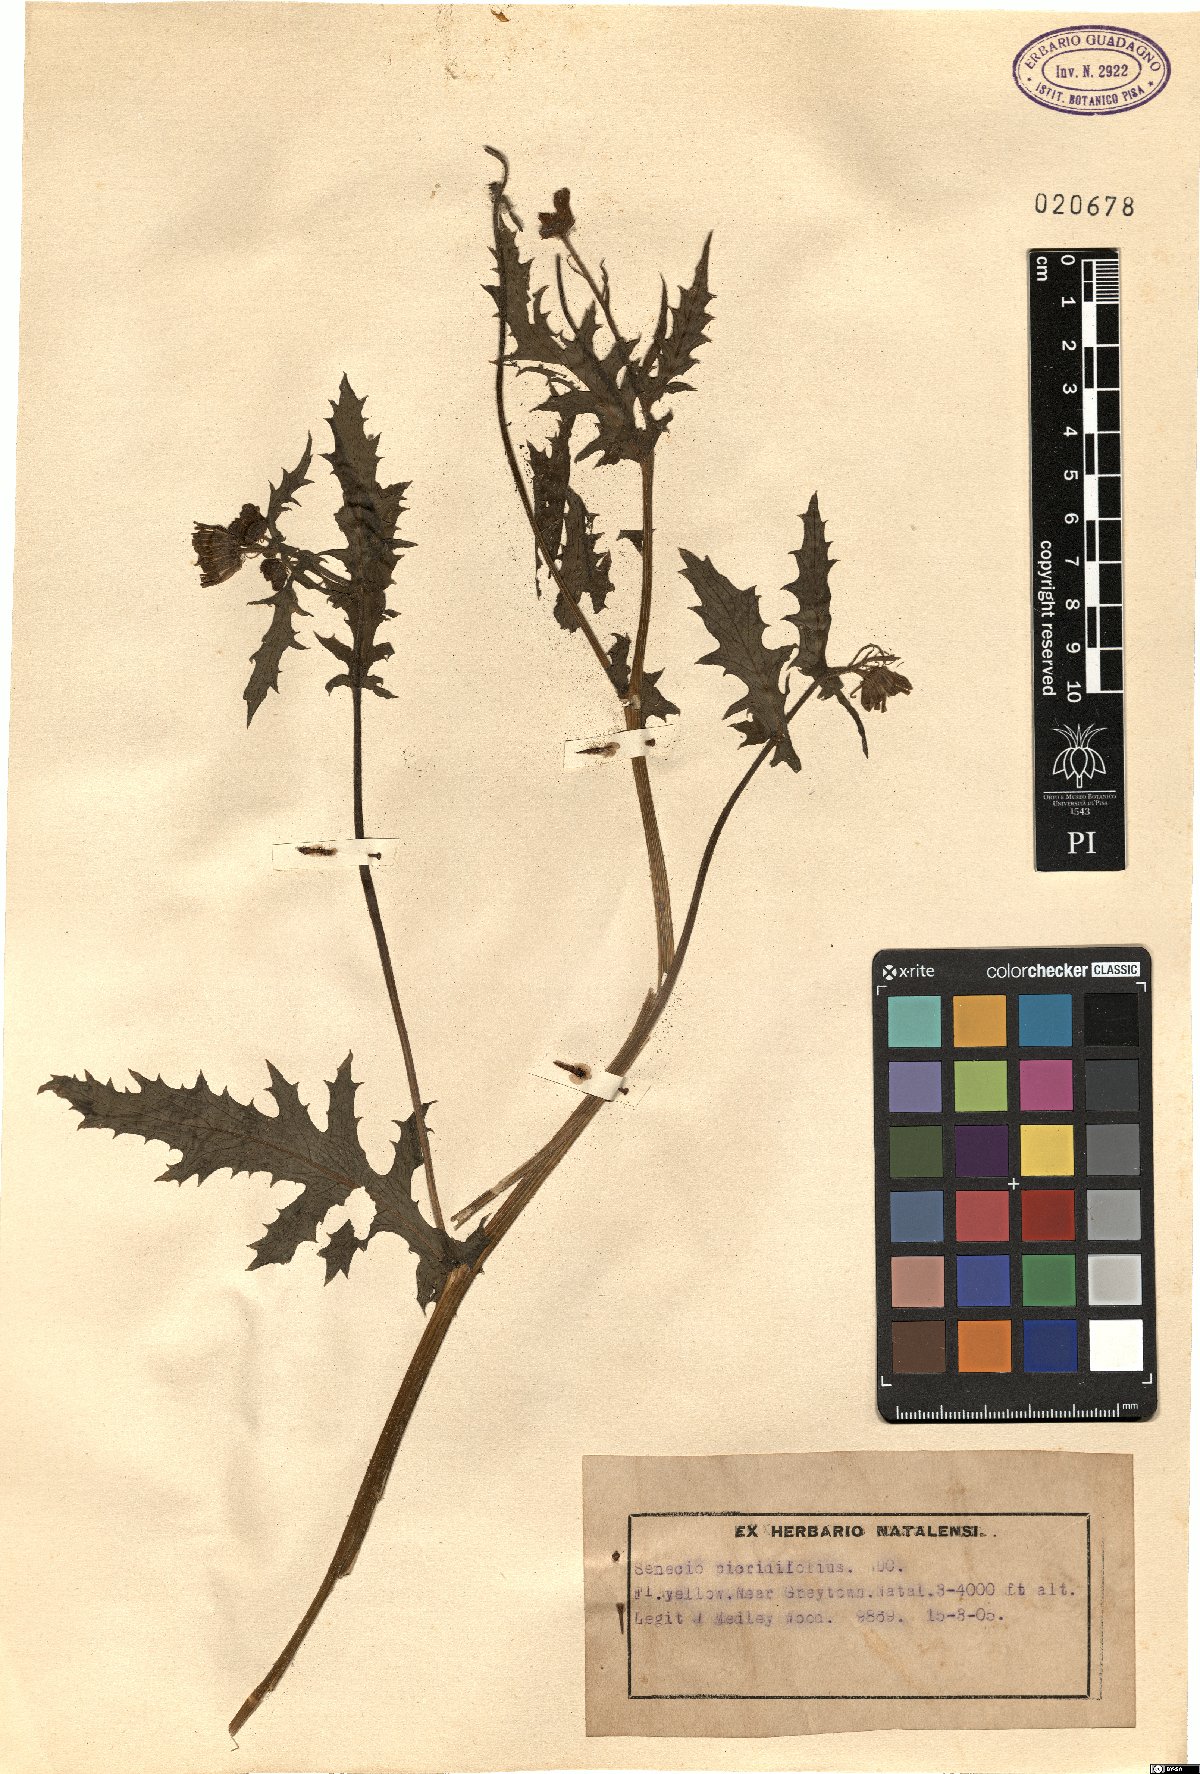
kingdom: Plantae
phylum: Tracheophyta
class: Magnoliopsida
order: Asterales
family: Asteraceae
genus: Crassocephalum
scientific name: Crassocephalum picridifolium
